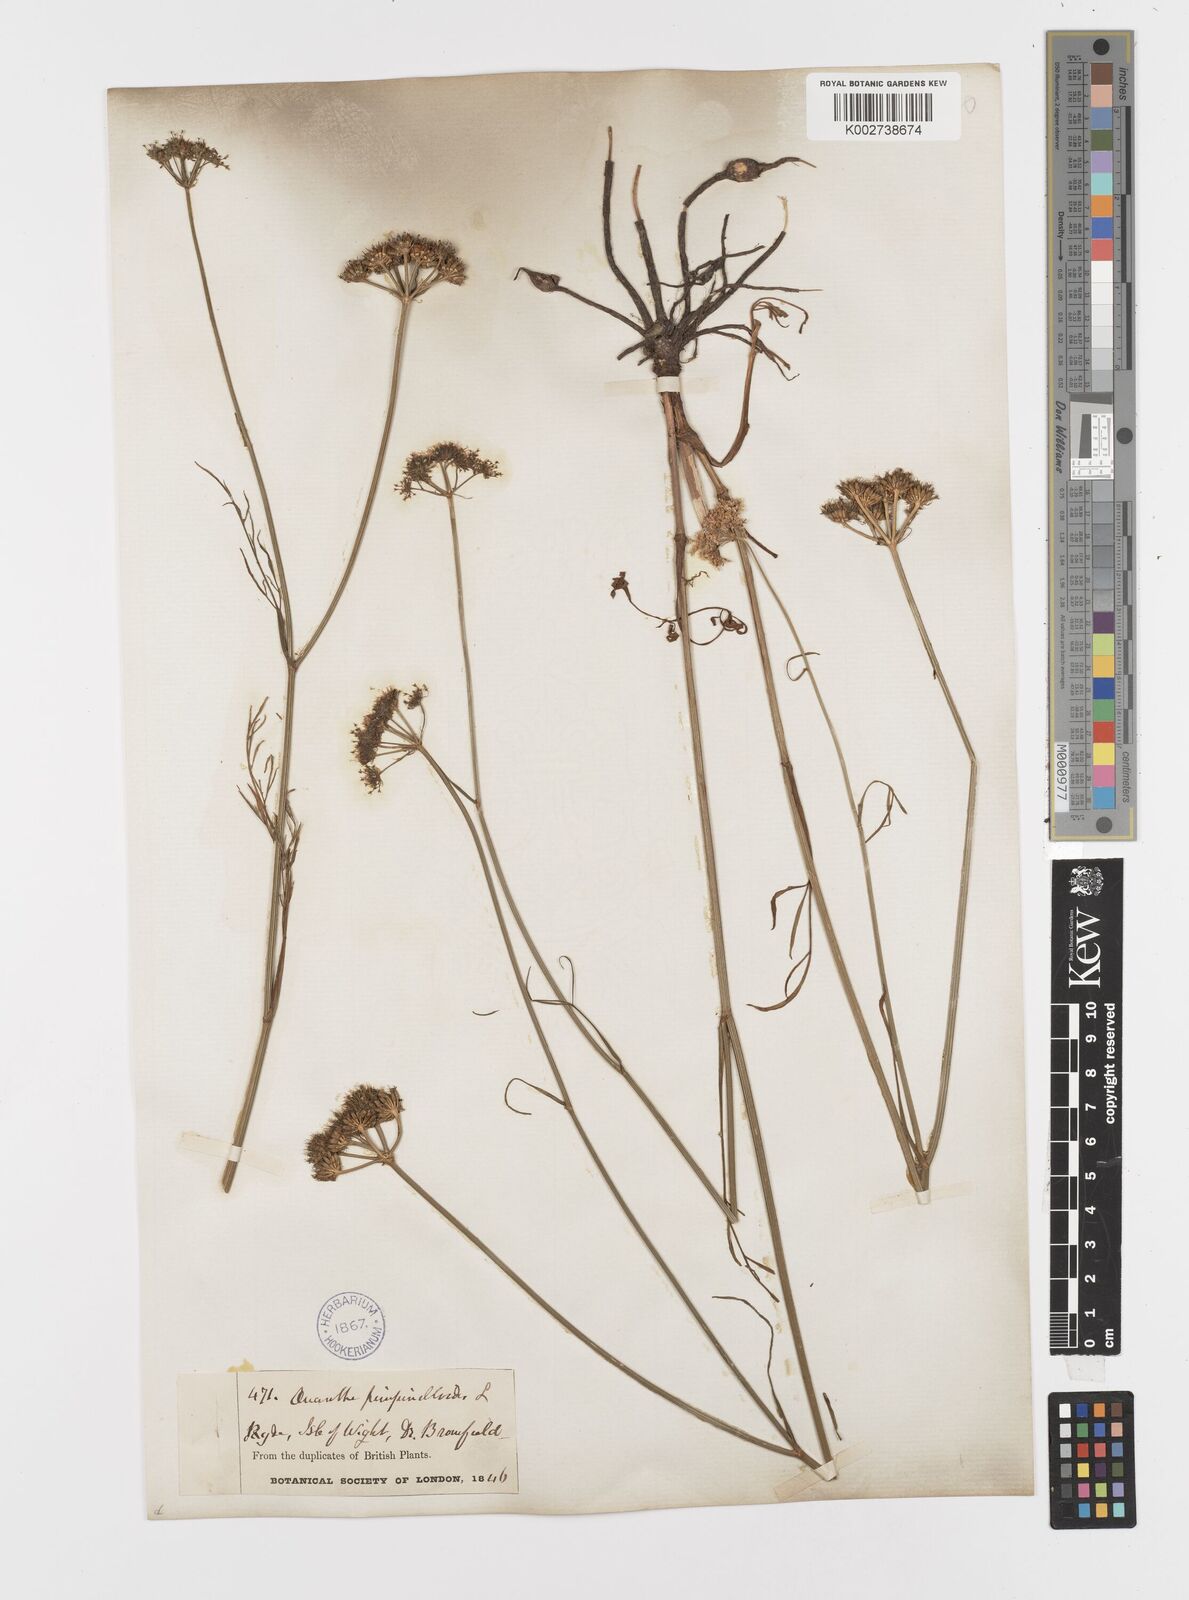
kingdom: Plantae
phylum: Tracheophyta
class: Magnoliopsida
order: Apiales
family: Apiaceae
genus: Oenanthe
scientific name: Oenanthe pimpinelloides
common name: Corky-fruited water-dropwort
